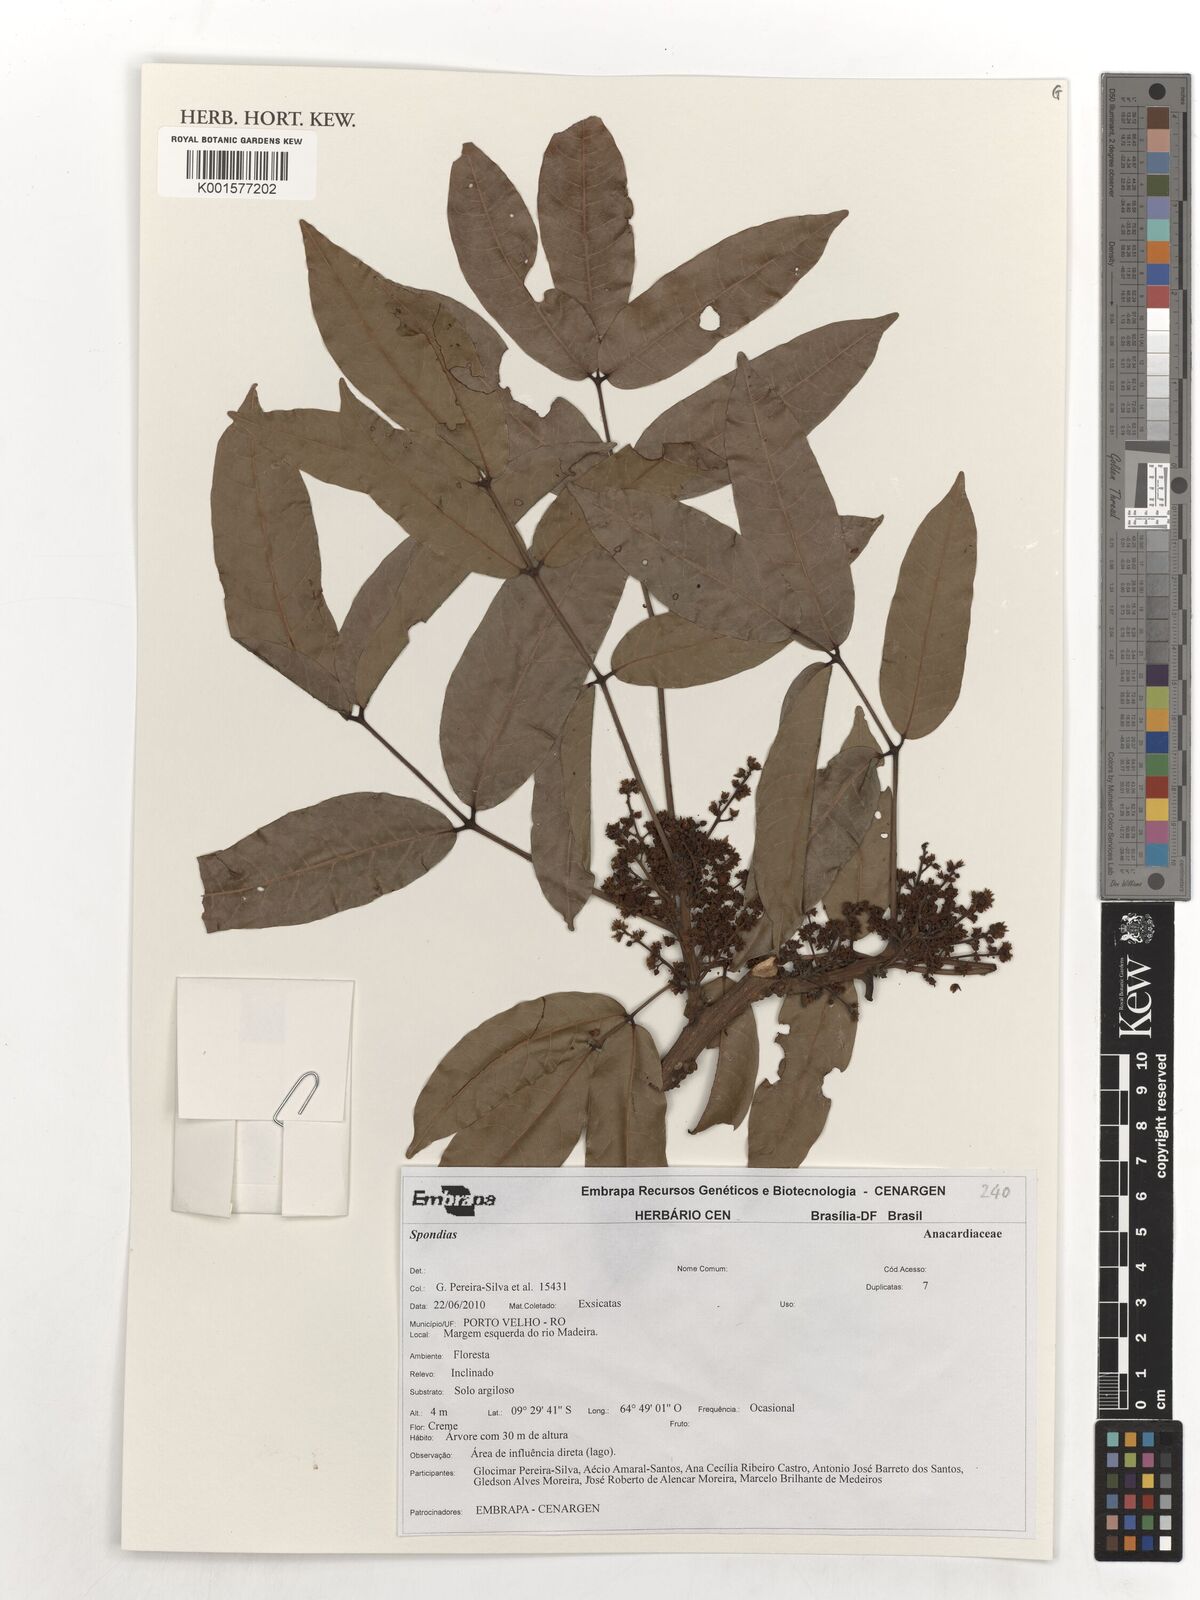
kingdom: Plantae
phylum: Tracheophyta
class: Magnoliopsida
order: Sapindales
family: Anacardiaceae
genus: Spondias
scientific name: Spondias
